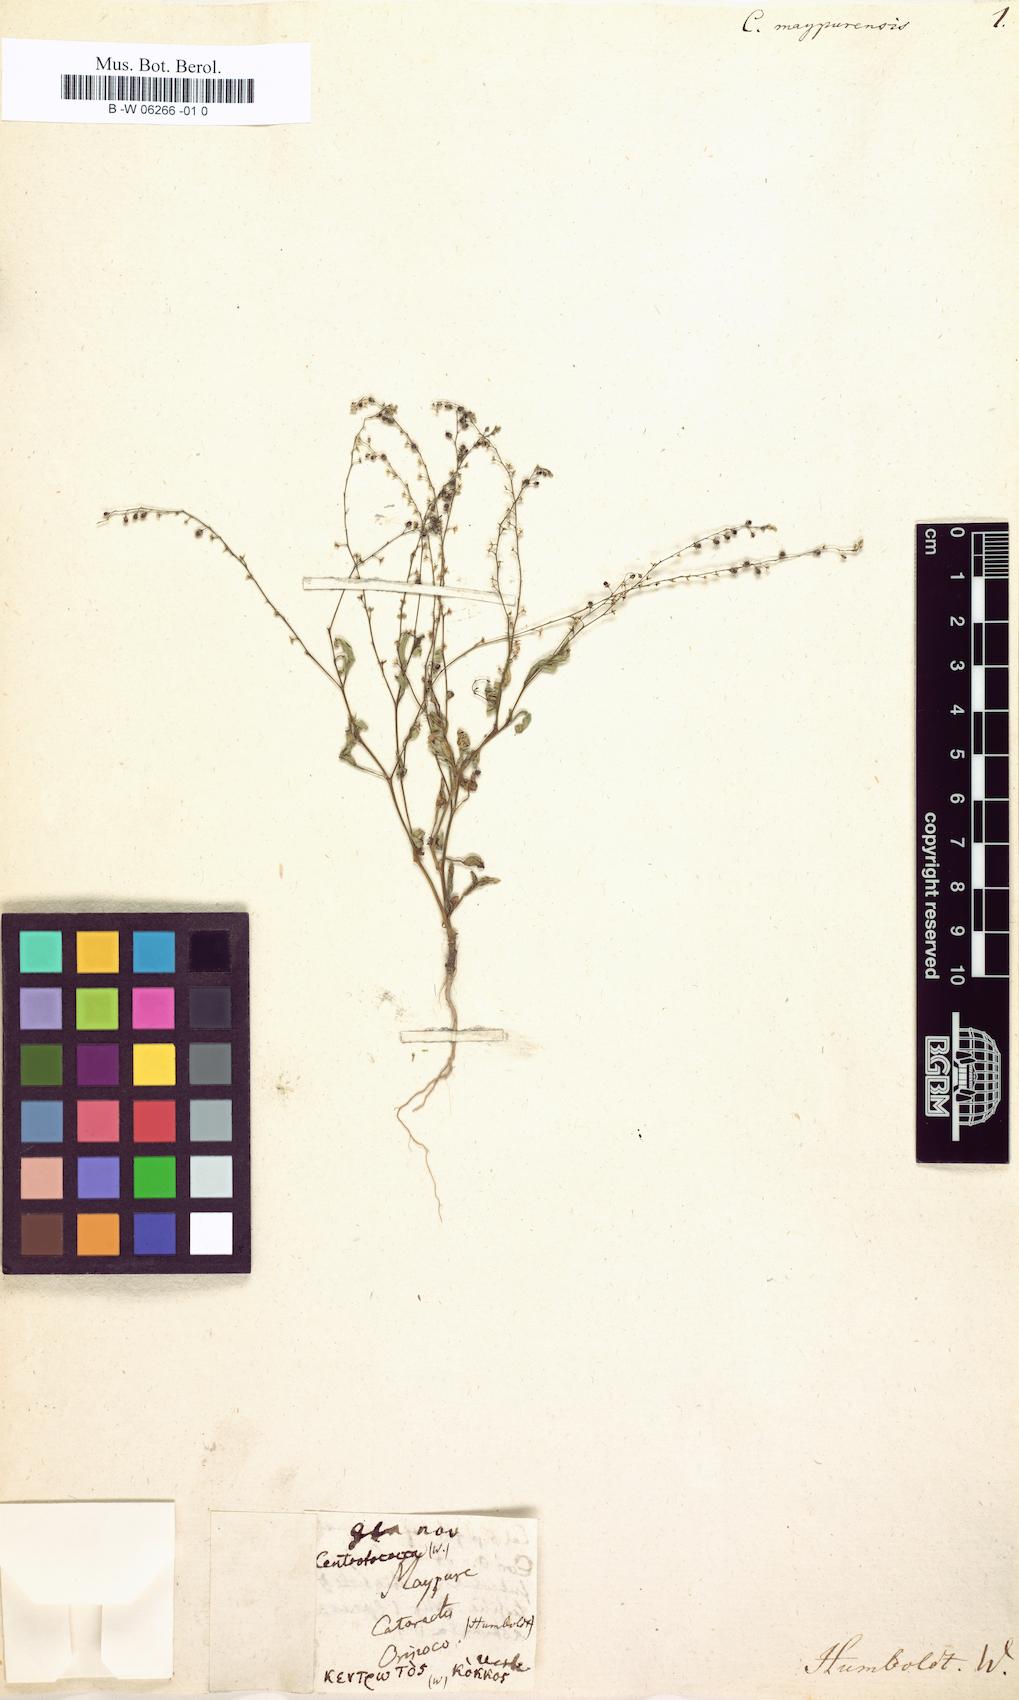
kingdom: Plantae
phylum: Tracheophyta
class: Magnoliopsida
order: Caryophyllales
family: Microteaceae
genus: Microtea
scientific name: Microtea maypurensis
